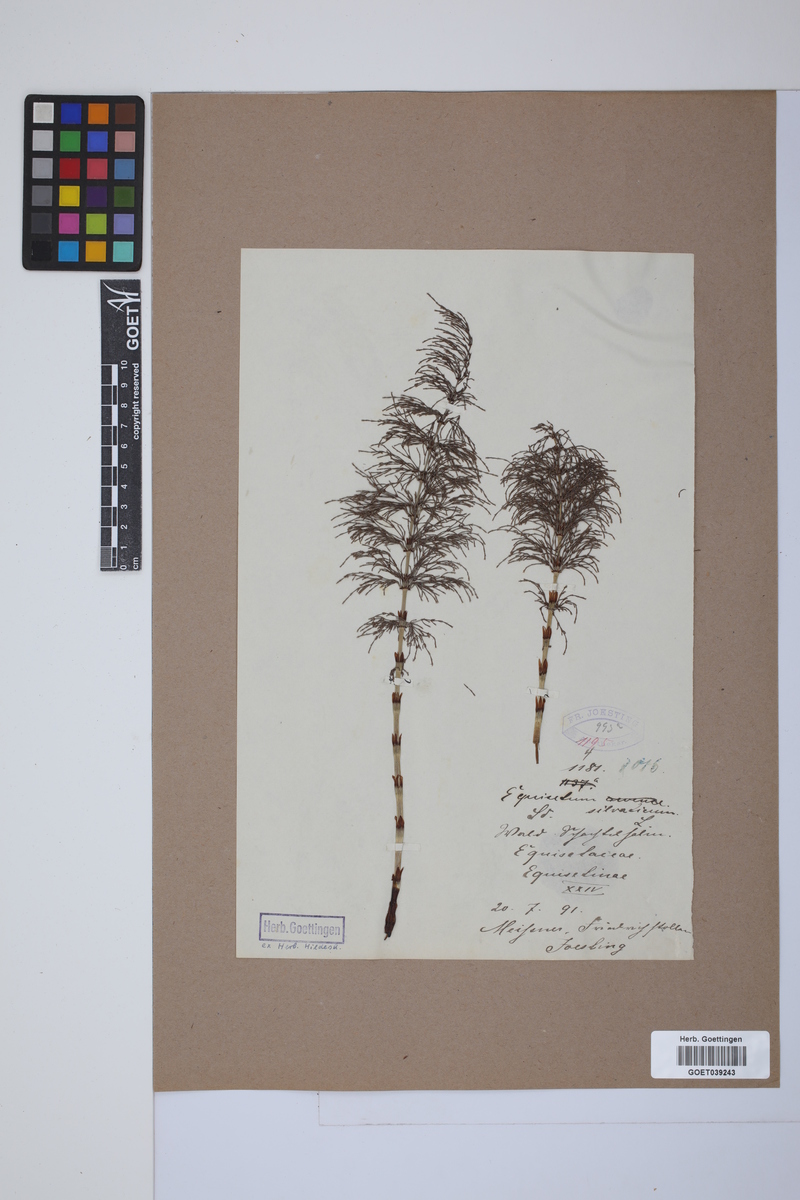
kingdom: Plantae
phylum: Tracheophyta
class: Polypodiopsida
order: Equisetales
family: Equisetaceae
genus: Equisetum
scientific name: Equisetum sylvaticum
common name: Wood horsetail
